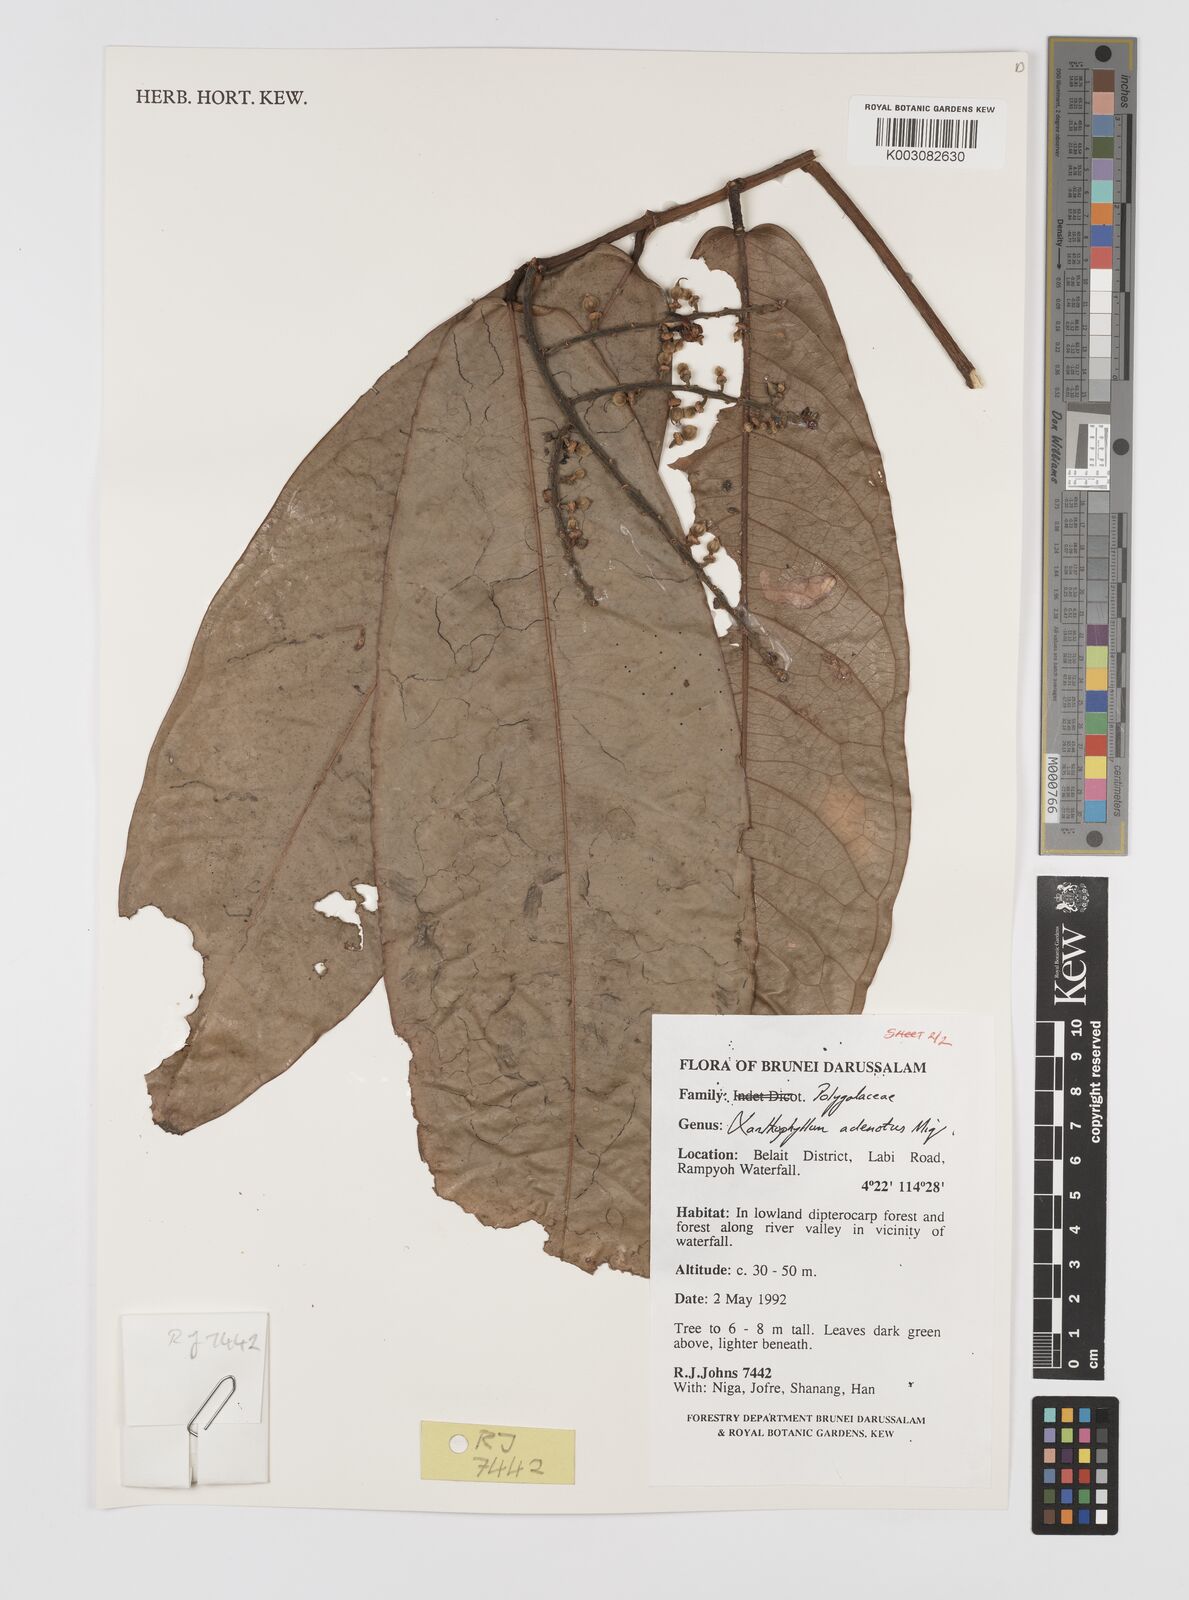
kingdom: Plantae
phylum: Tracheophyta
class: Magnoliopsida
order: Fabales
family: Polygalaceae
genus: Xanthophyllum
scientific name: Xanthophyllum adenotus
